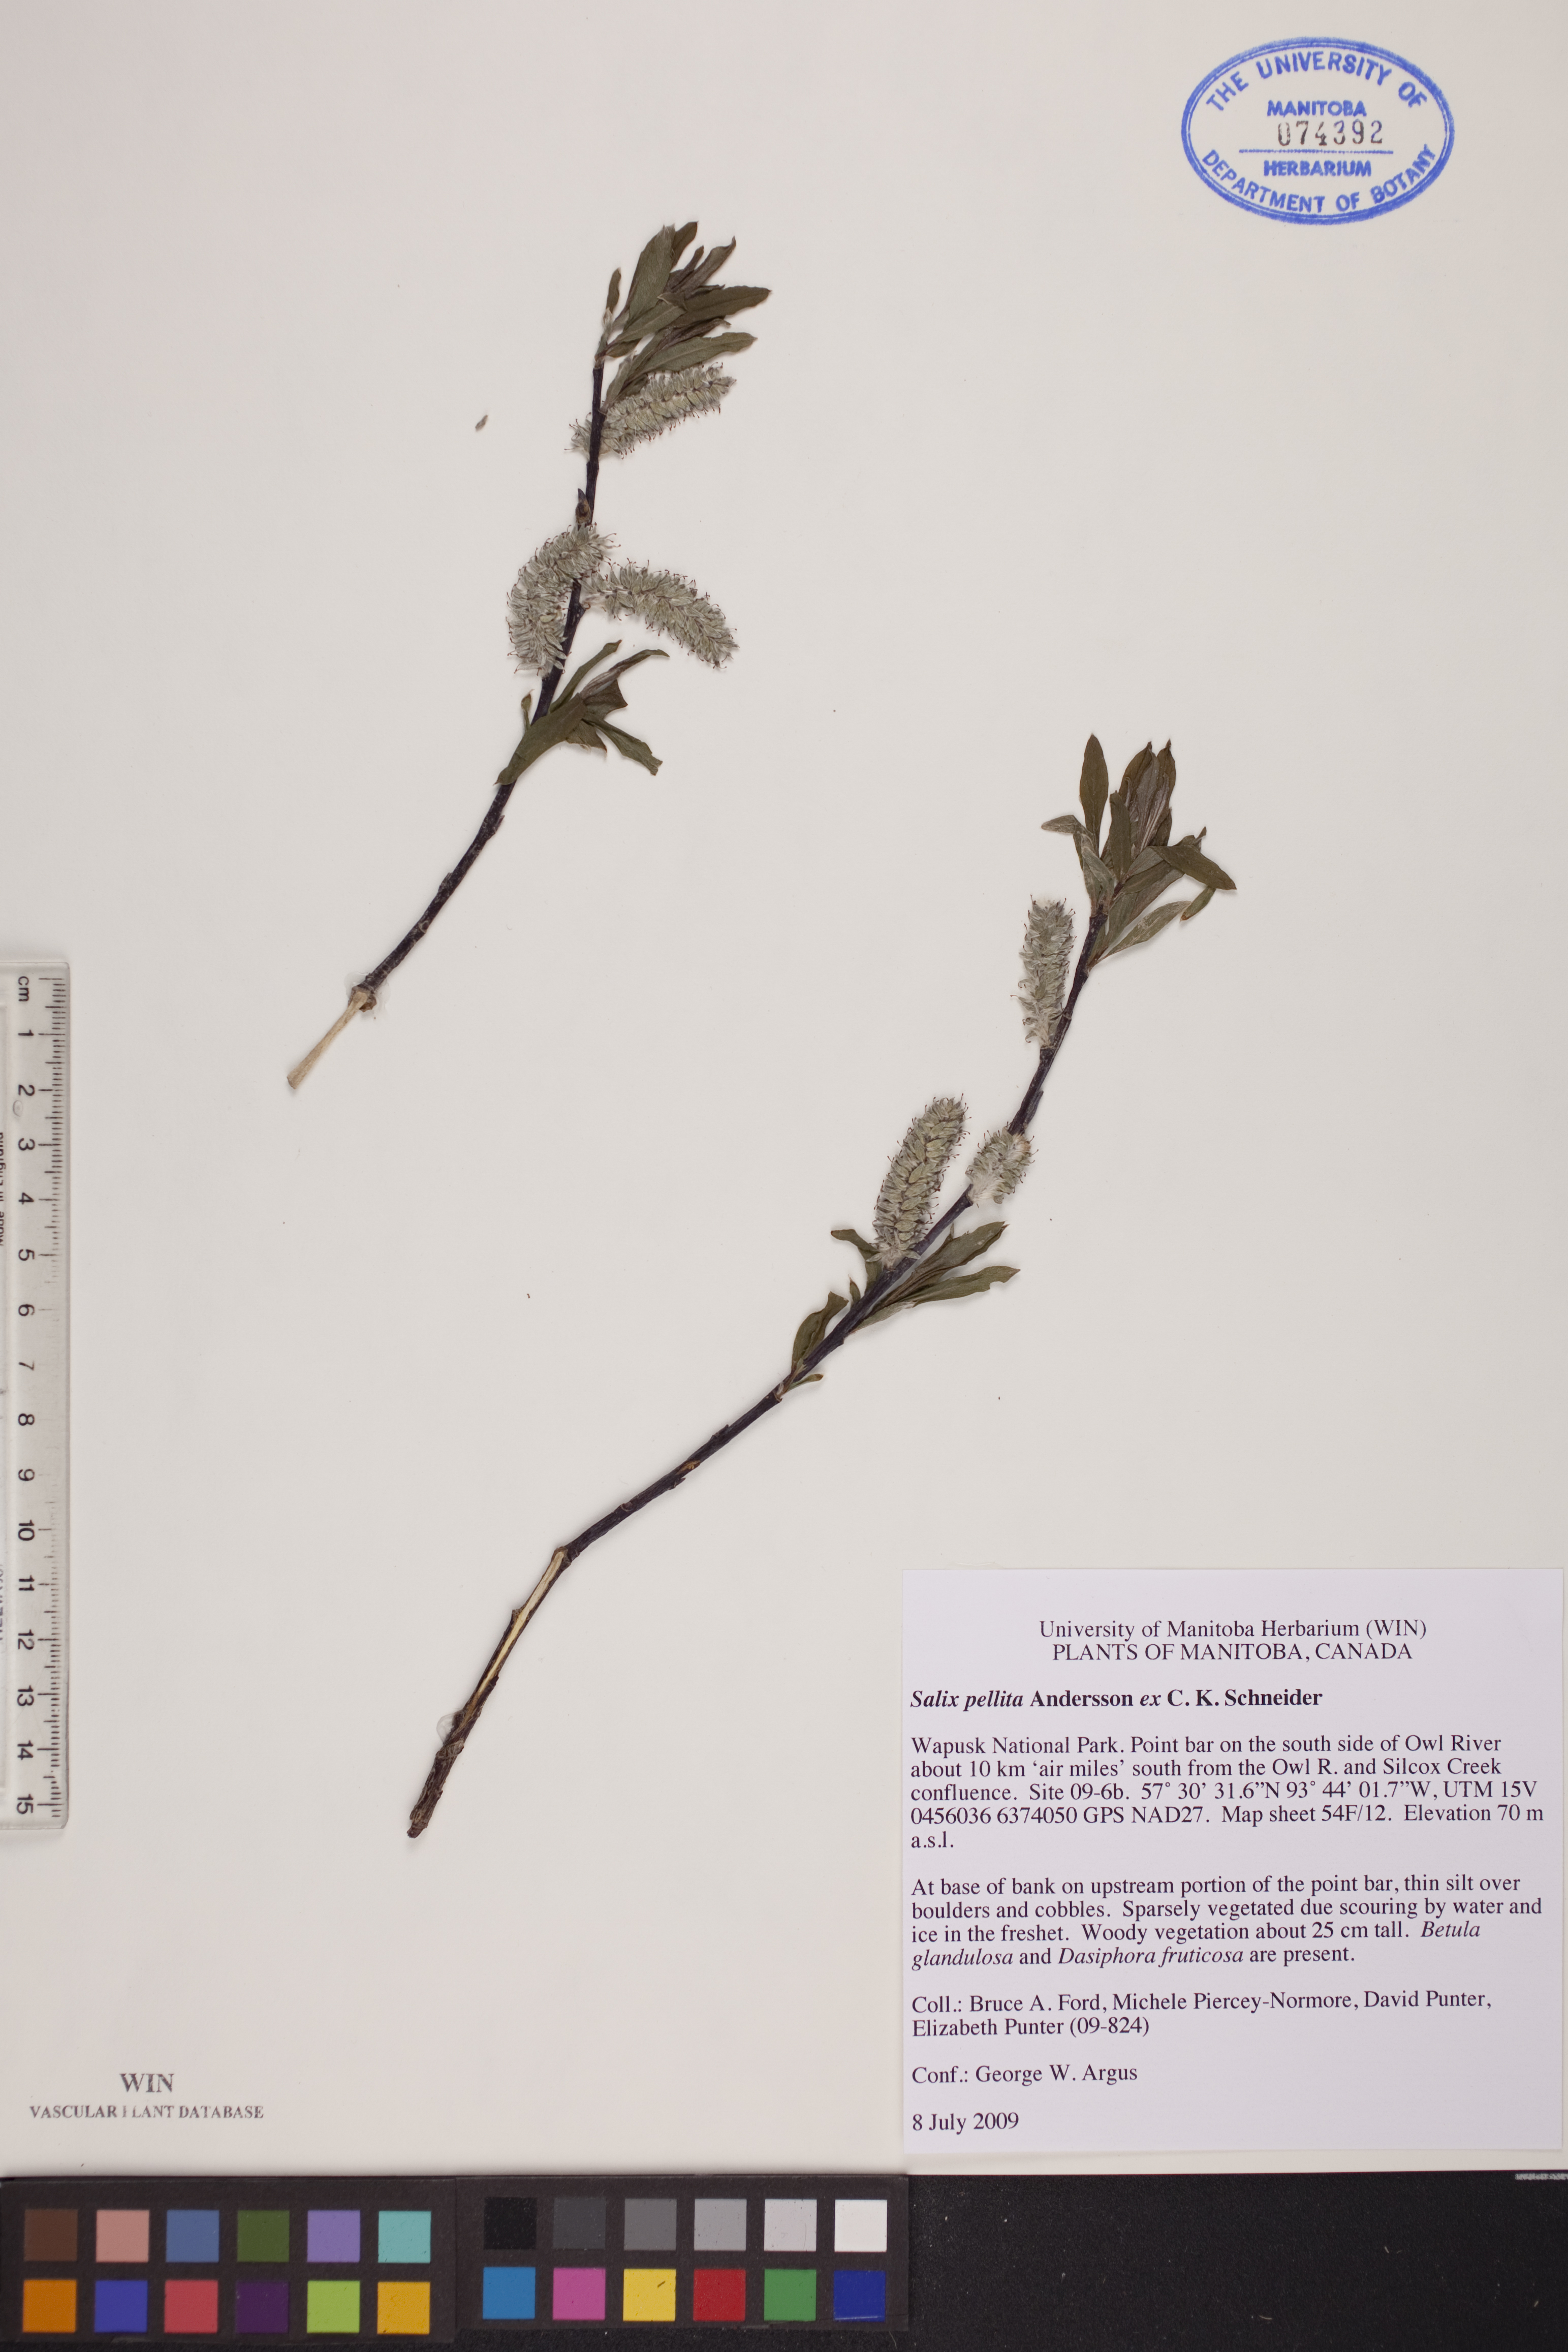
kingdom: Plantae
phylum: Tracheophyta
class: Magnoliopsida
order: Malpighiales
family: Salicaceae
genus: Salix
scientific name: Salix pellita
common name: Satiny willow
